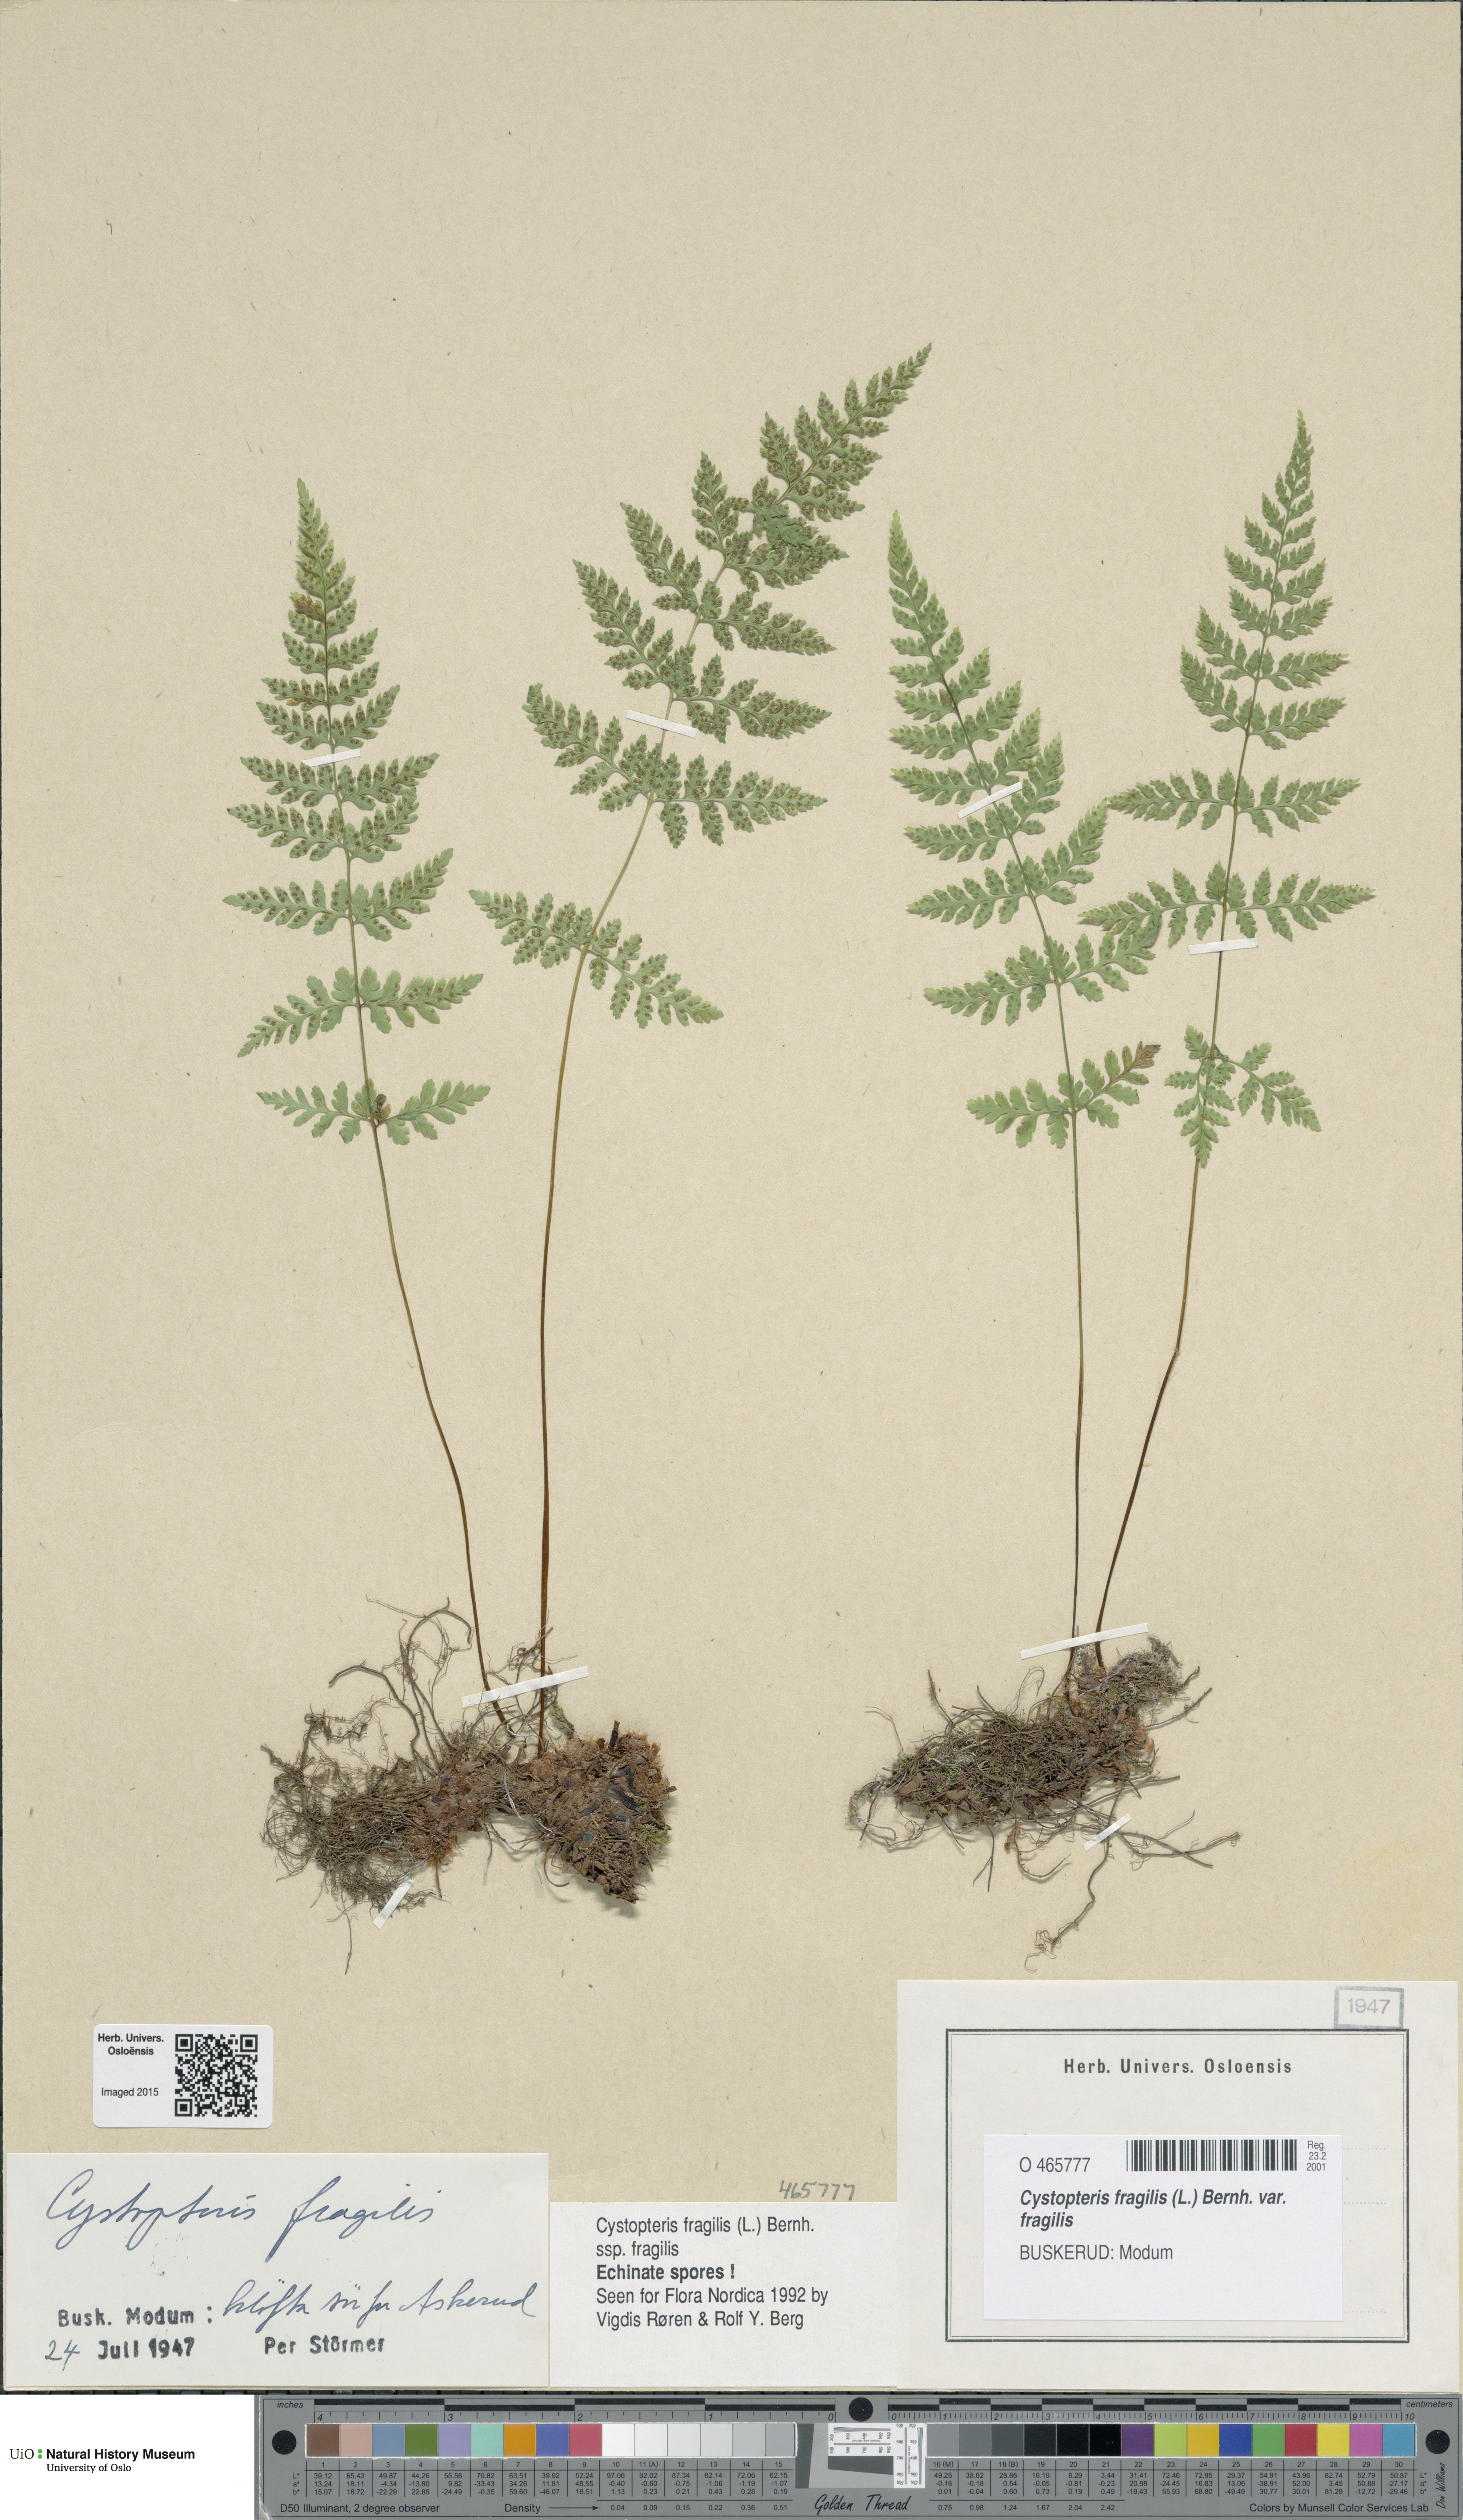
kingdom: Plantae
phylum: Tracheophyta
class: Polypodiopsida
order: Polypodiales
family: Cystopteridaceae
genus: Cystopteris
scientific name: Cystopteris fragilis
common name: Brittle bladder fern
